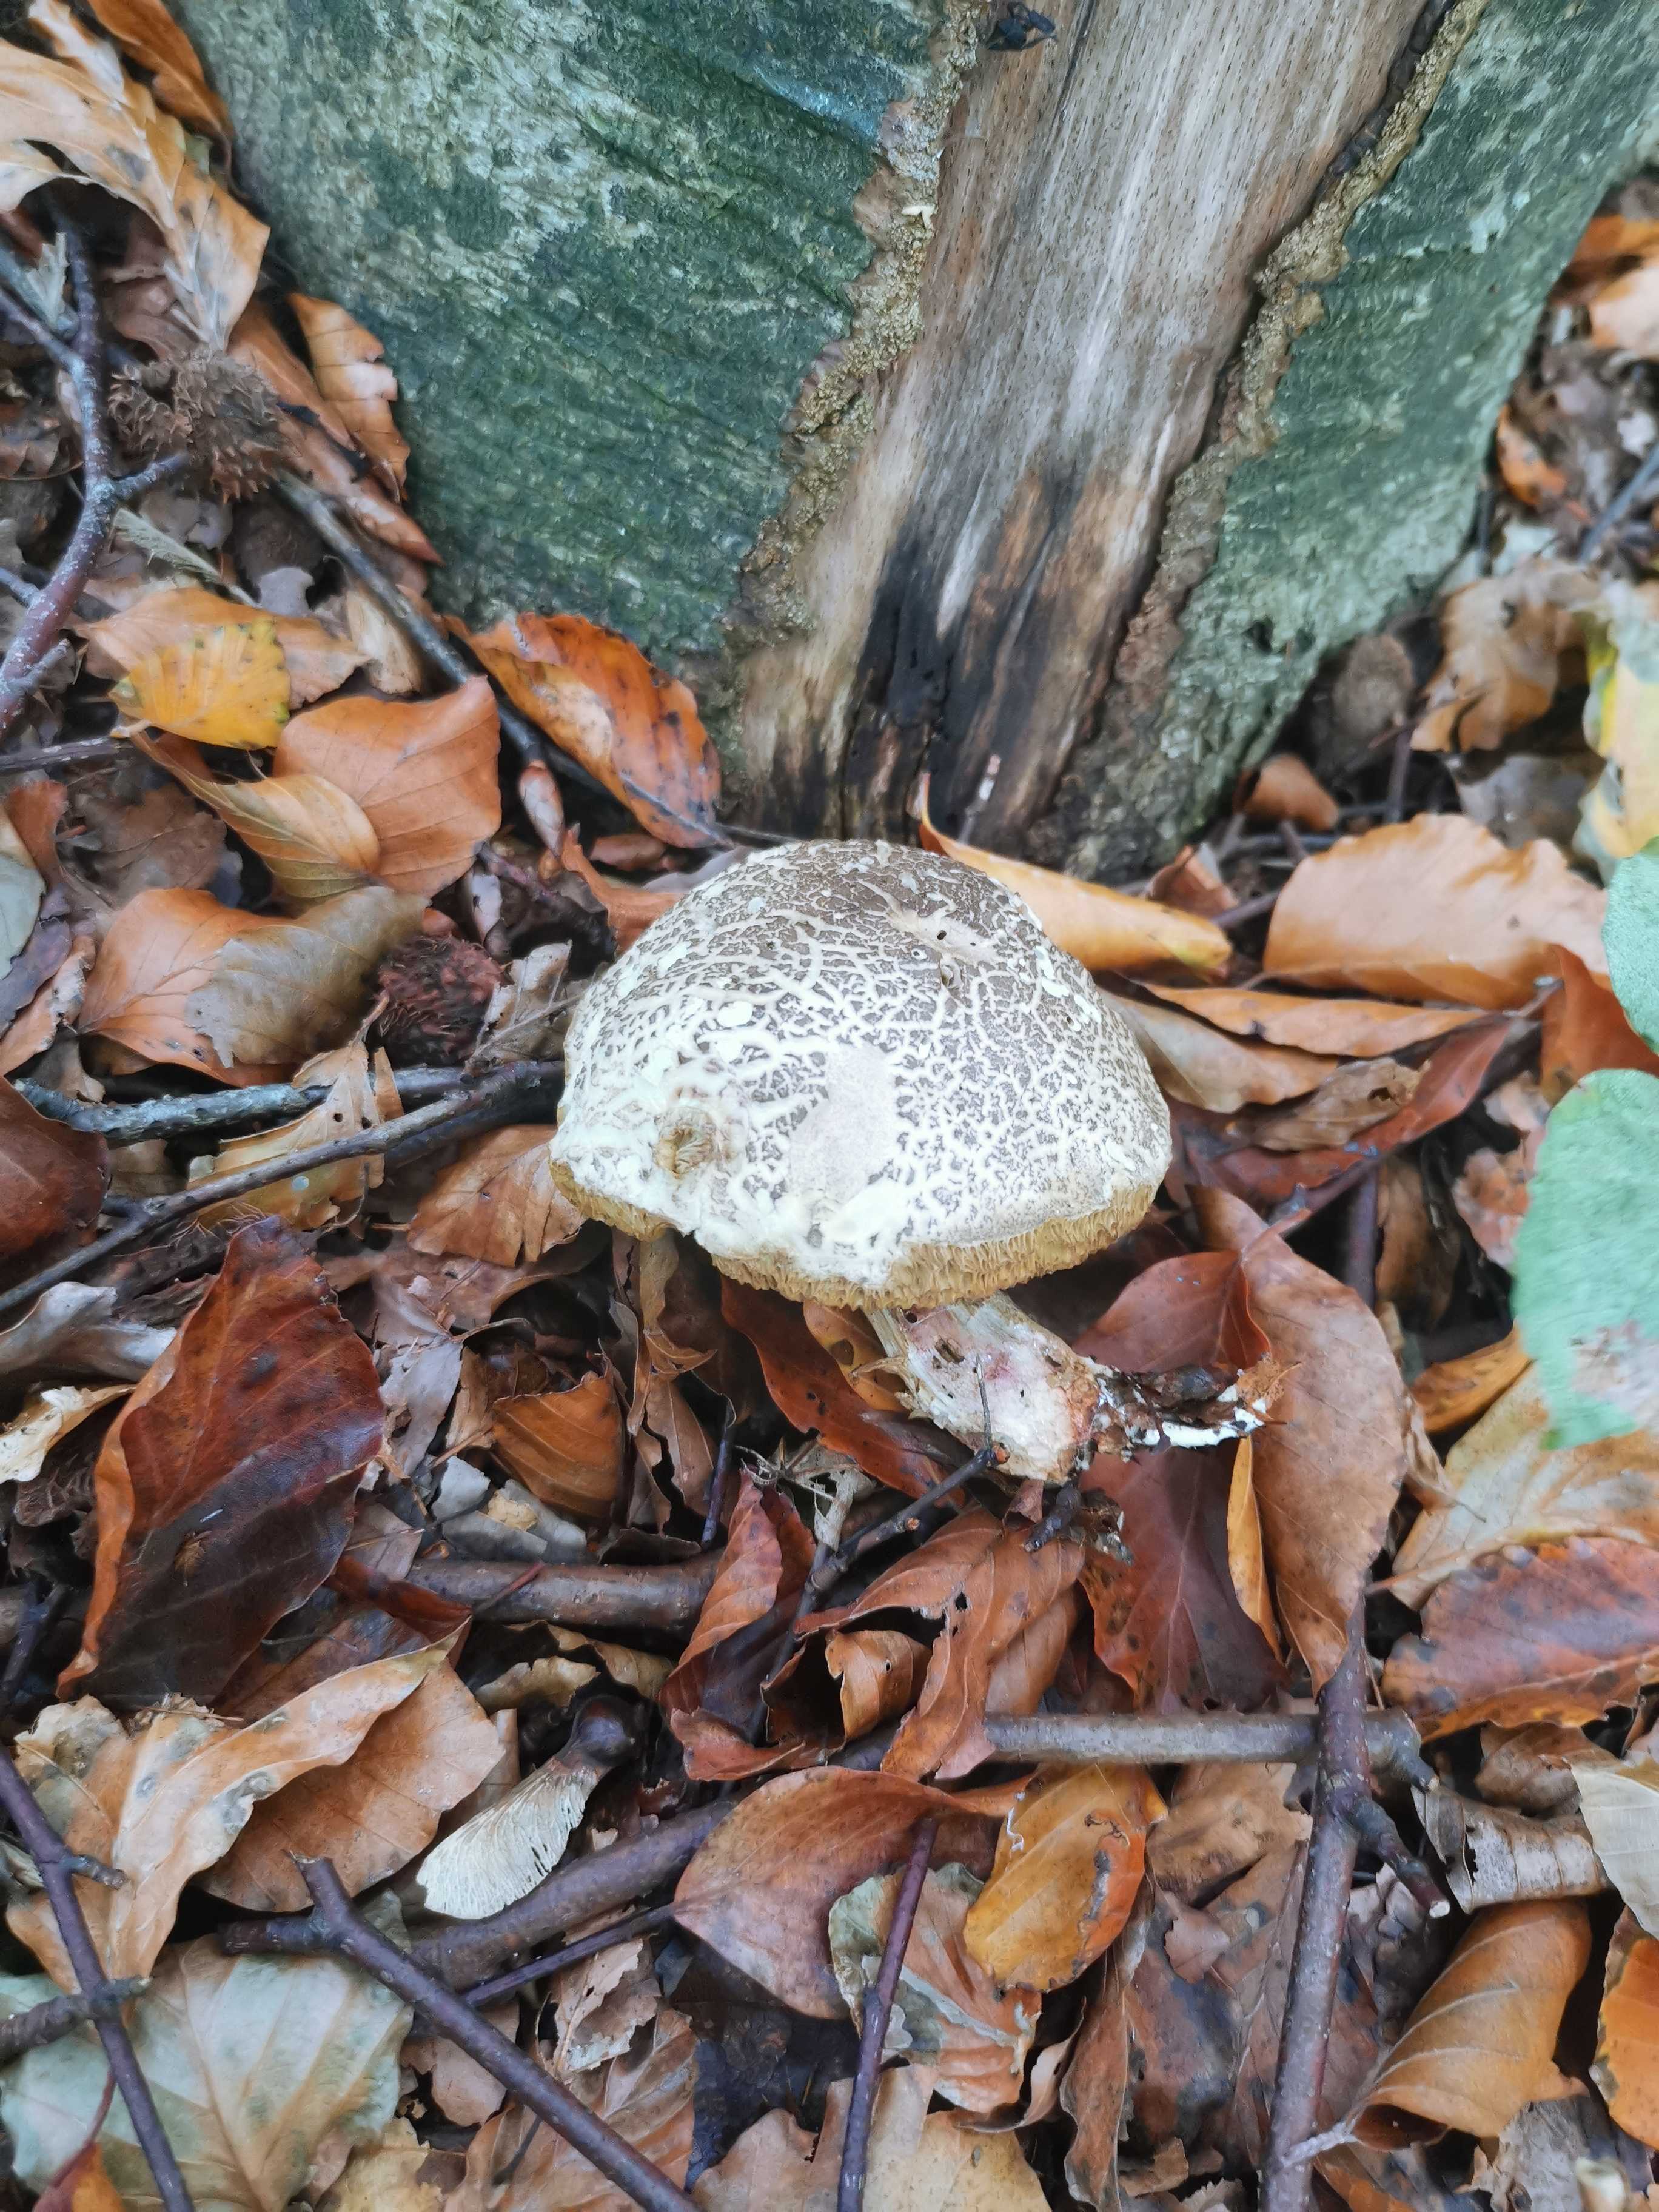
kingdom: Fungi
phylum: Basidiomycota
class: Agaricomycetes
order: Boletales
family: Boletaceae
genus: Xerocomellus
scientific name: Xerocomellus
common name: dværgrørhat
